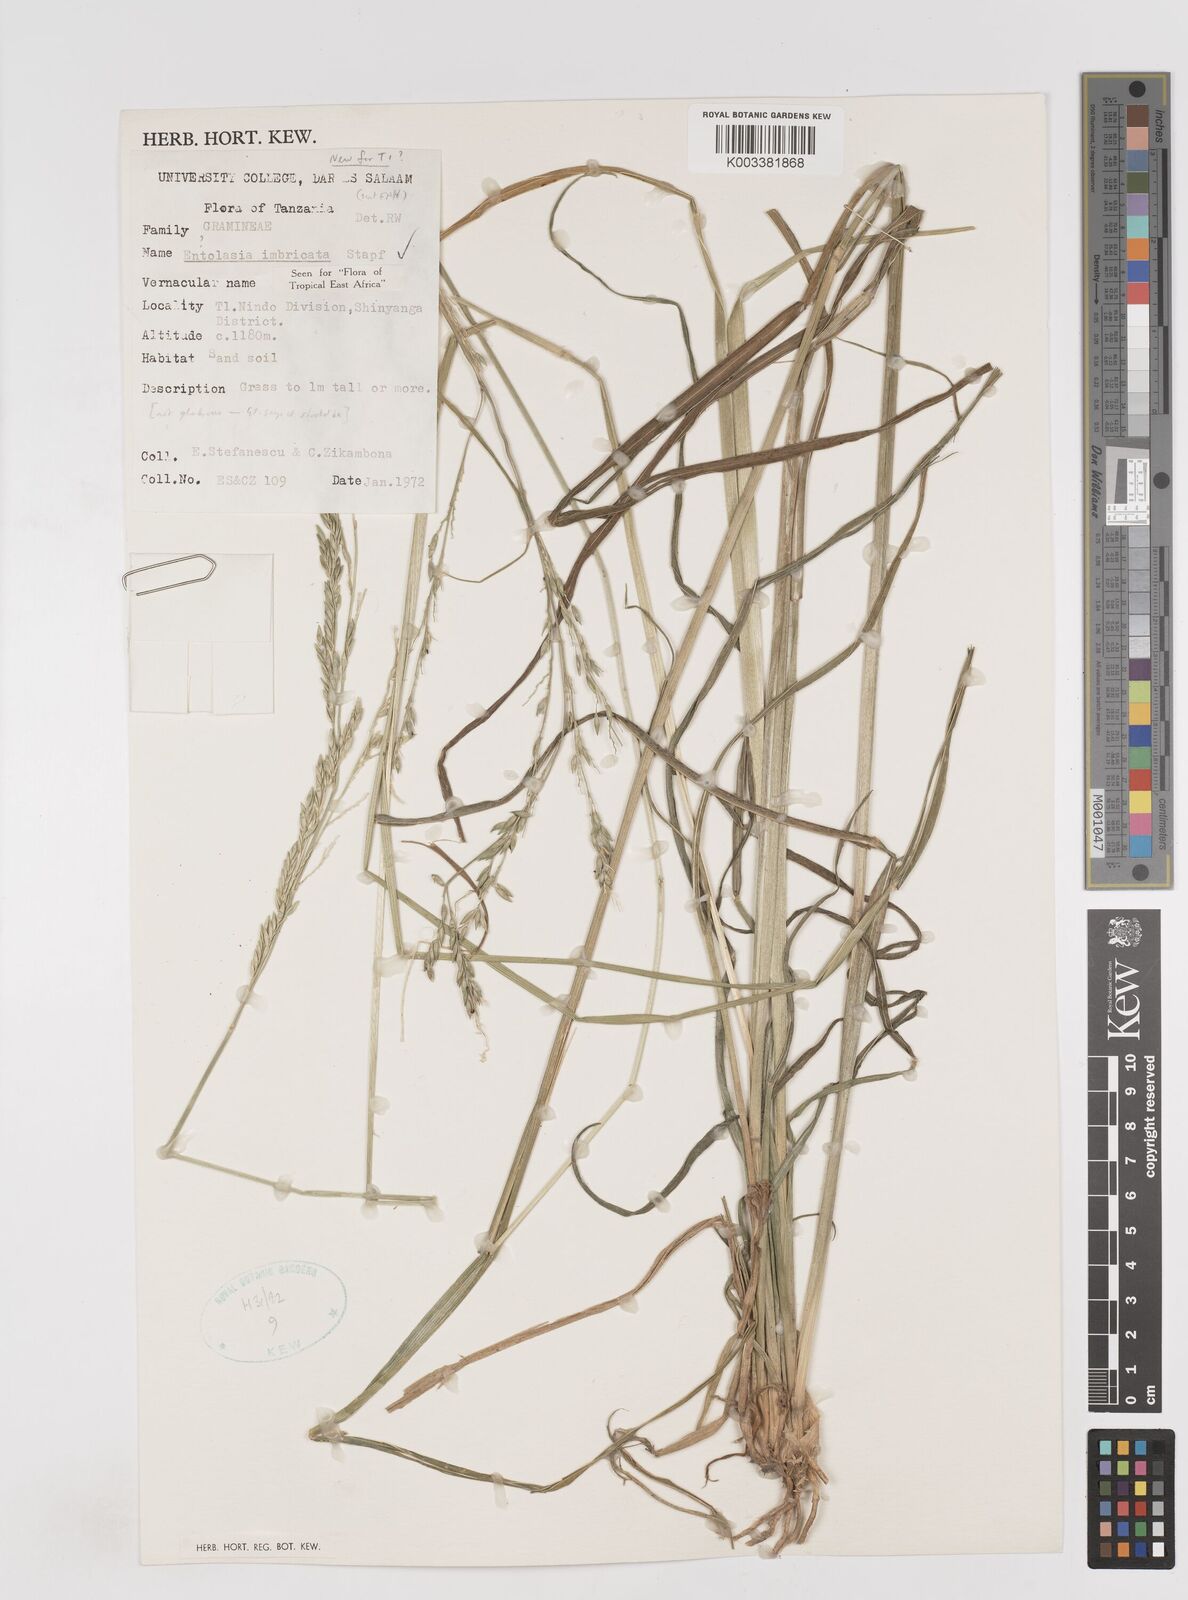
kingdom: Plantae
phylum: Tracheophyta
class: Liliopsida
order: Poales
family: Poaceae
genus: Entolasia
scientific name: Entolasia imbricata
